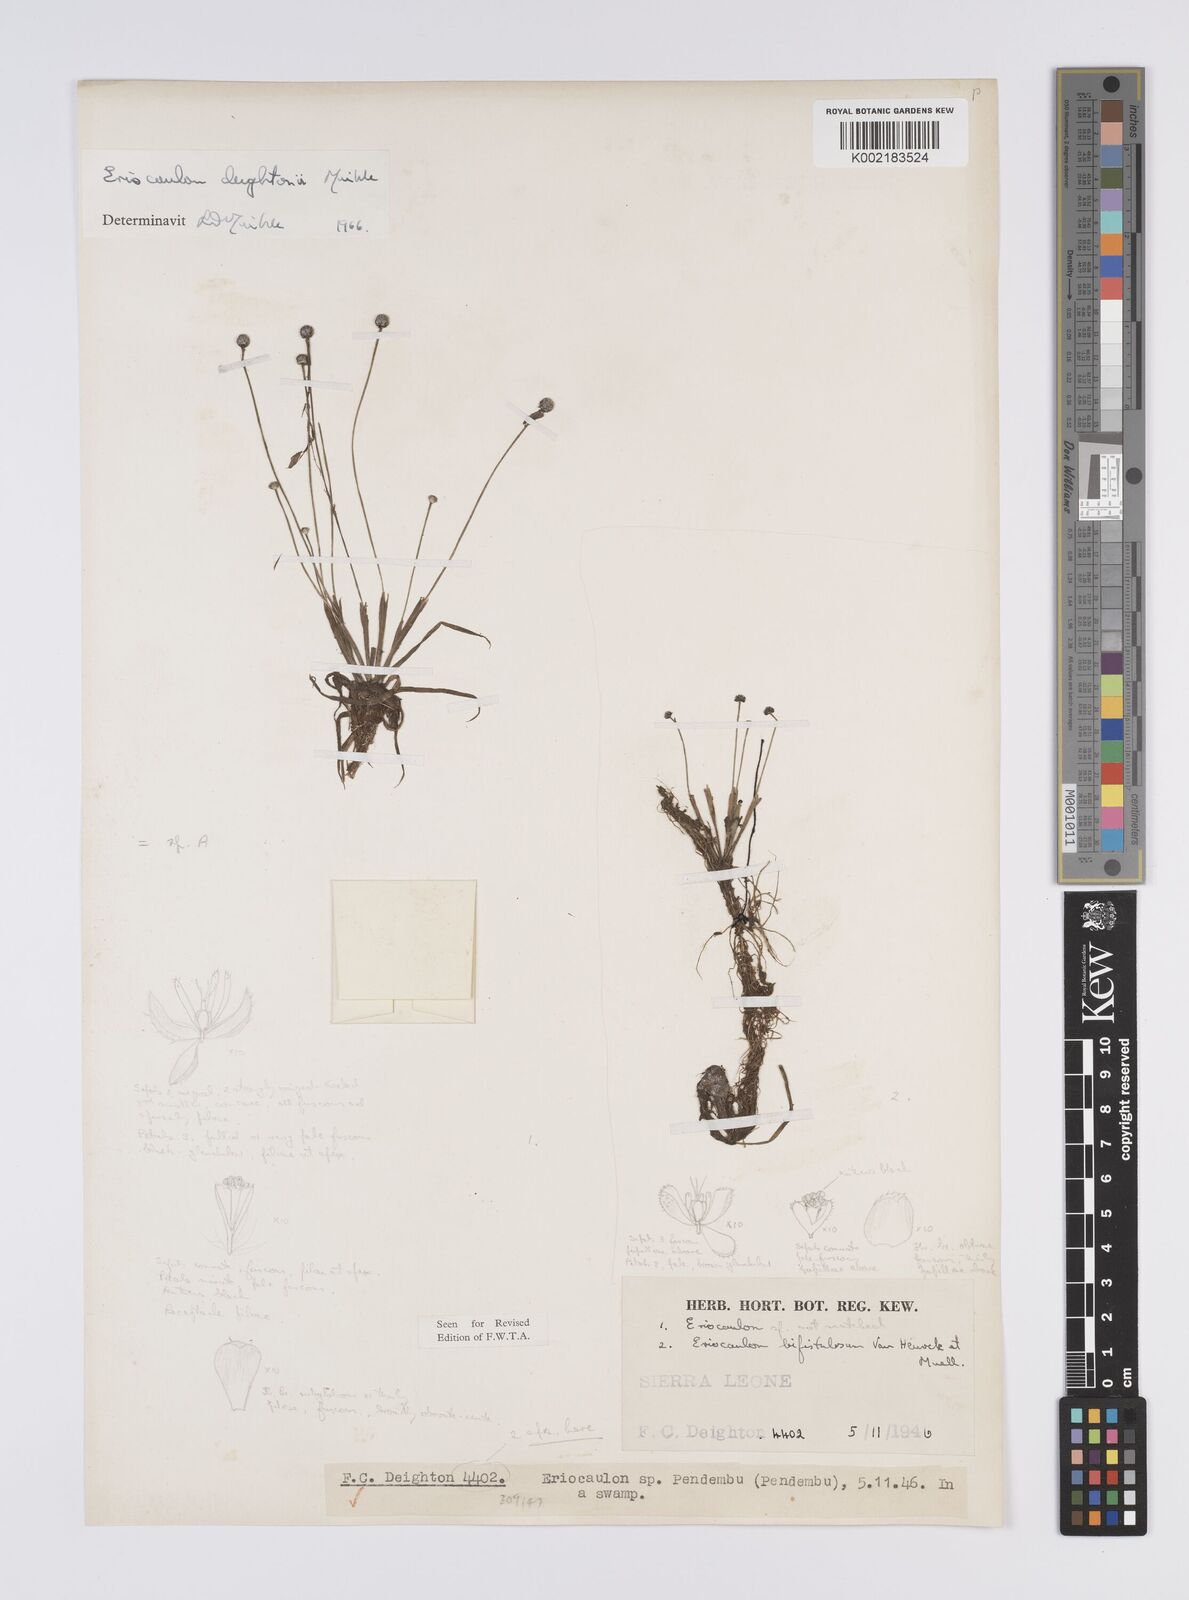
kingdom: Plantae
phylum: Tracheophyta
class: Liliopsida
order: Poales
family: Eriocaulaceae
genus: Eriocaulon
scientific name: Eriocaulon deightonii
